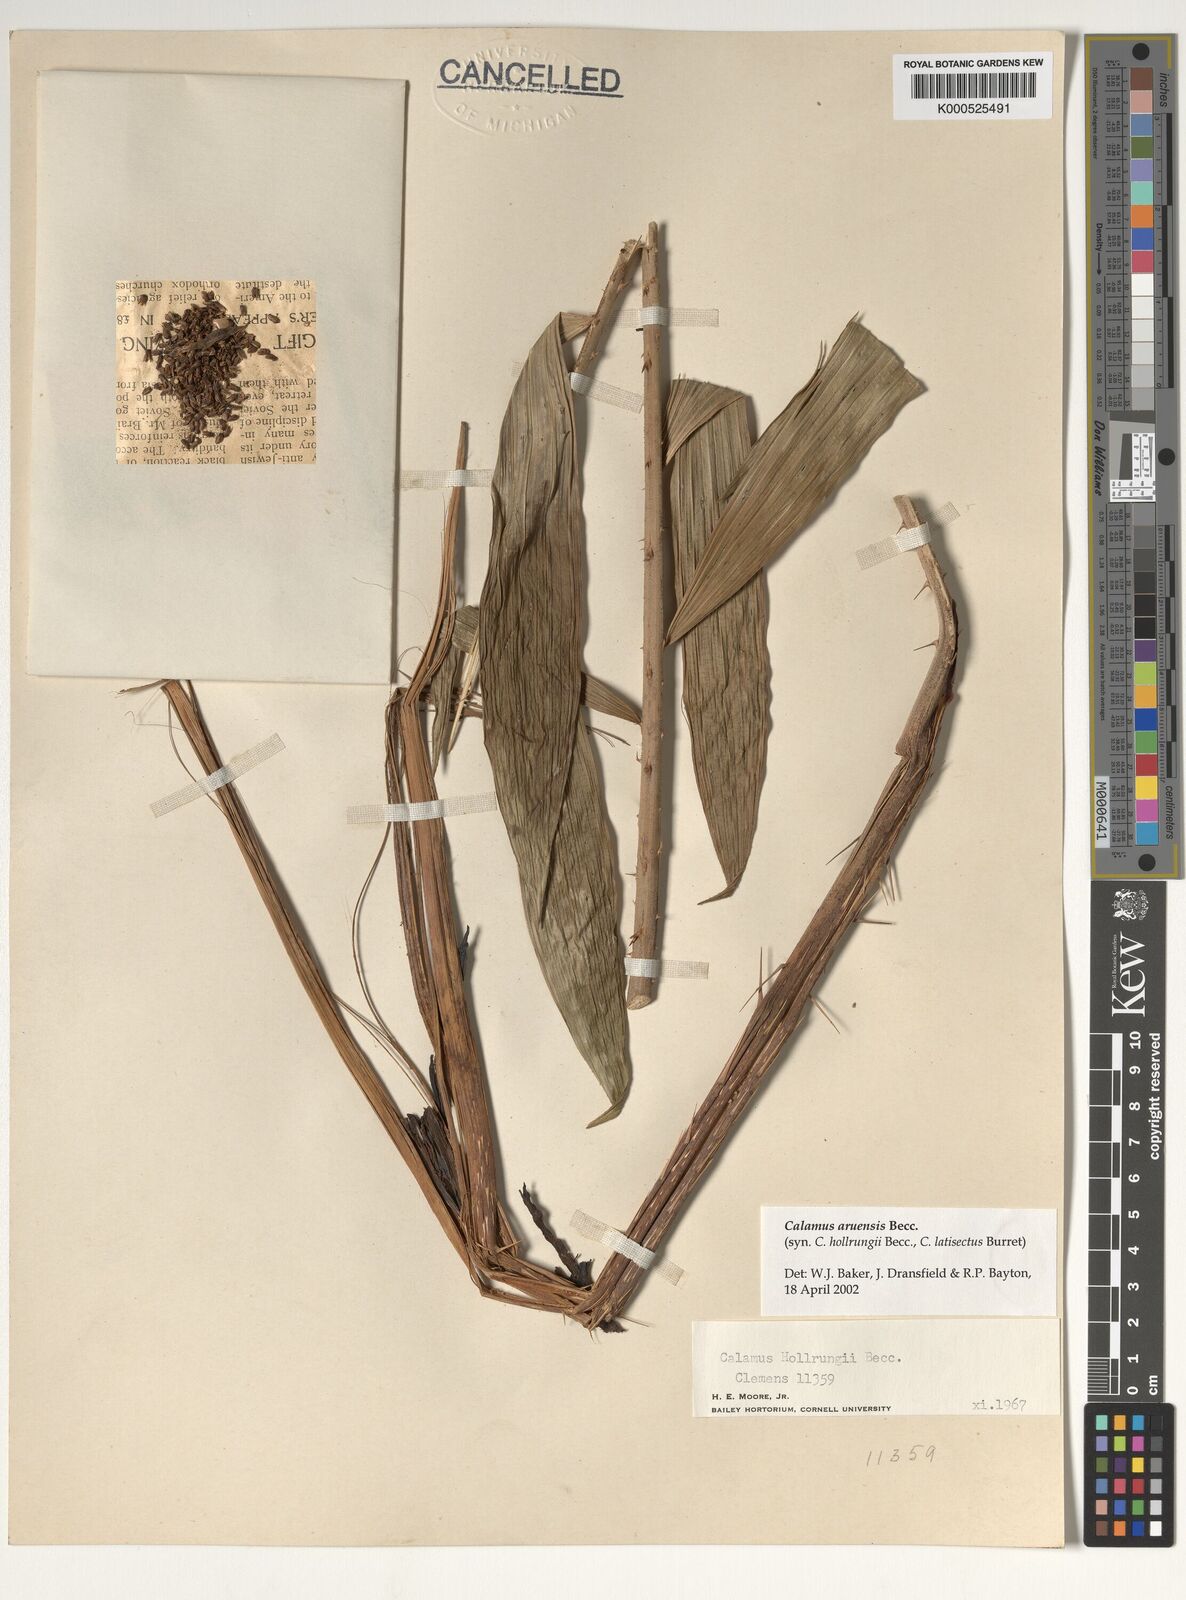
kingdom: Plantae
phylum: Tracheophyta
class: Liliopsida
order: Arecales
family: Arecaceae
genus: Calamus
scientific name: Calamus aruensis
